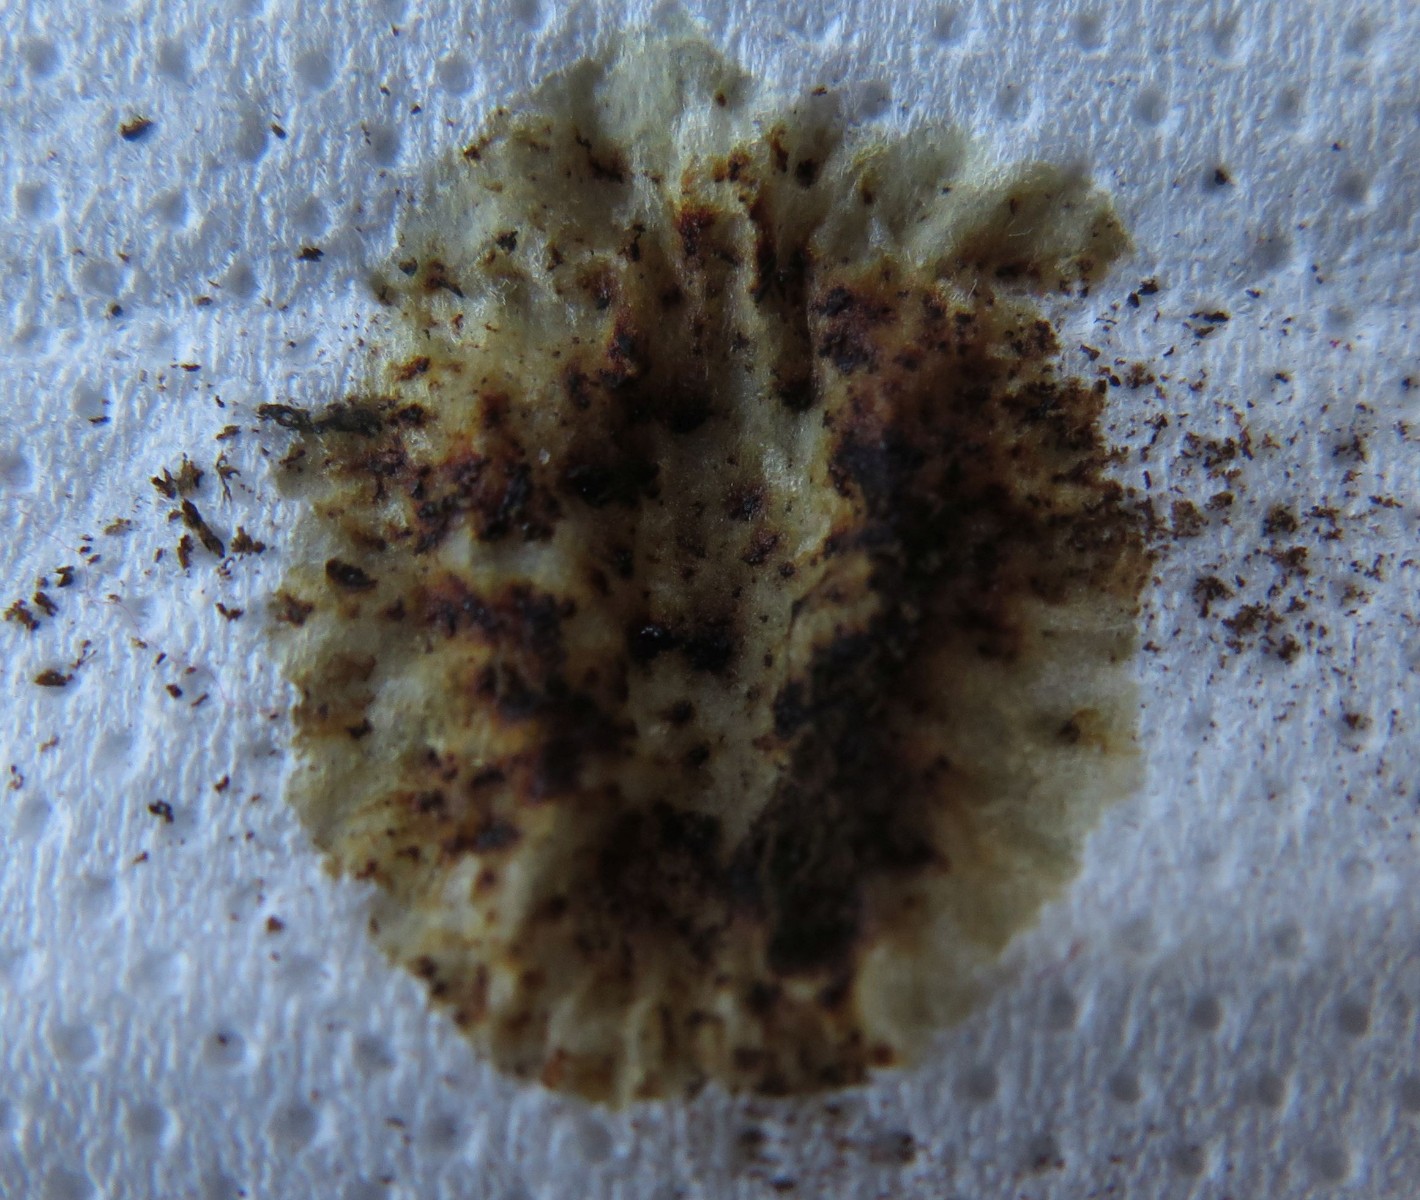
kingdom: Fungi
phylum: Ascomycota
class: Sordariomycetes
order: Xylariales
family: Hypoxylaceae
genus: Hypoxylon
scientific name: Hypoxylon macrocarpum
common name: skorpe-kulbær
